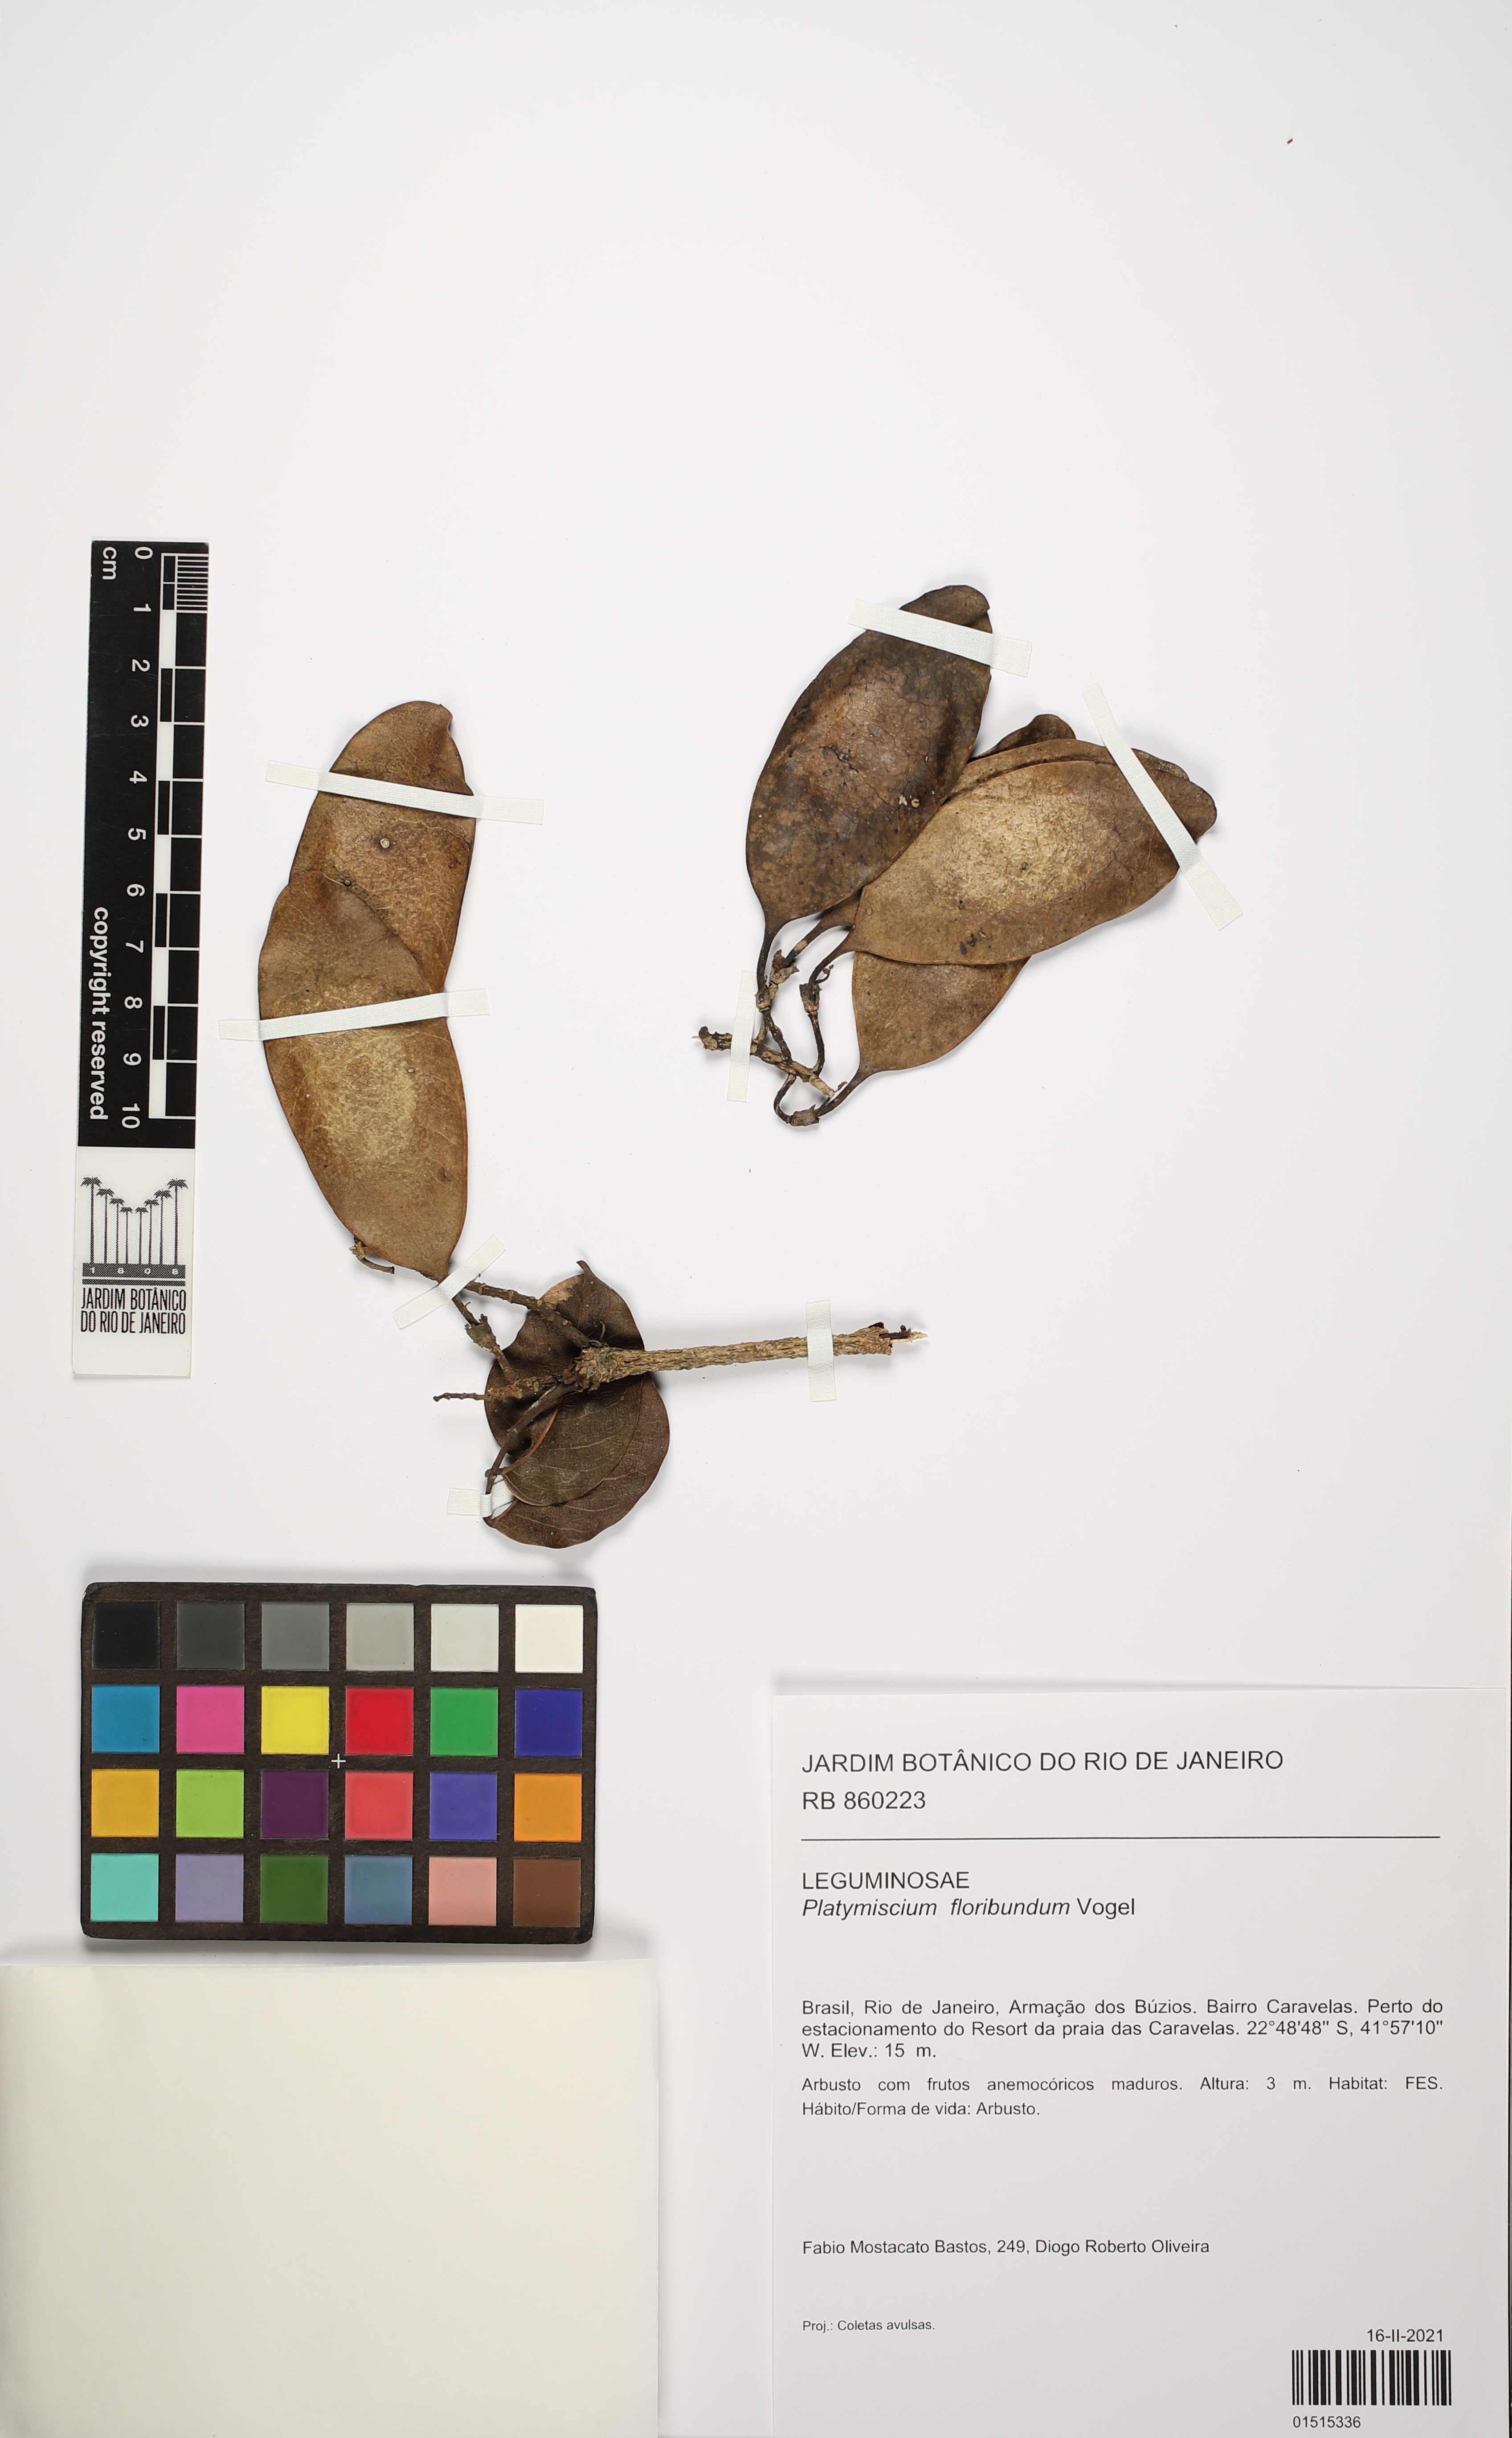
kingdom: Plantae
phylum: Tracheophyta
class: Magnoliopsida
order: Fabales
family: Fabaceae
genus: Platymiscium
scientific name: Platymiscium floribundum
